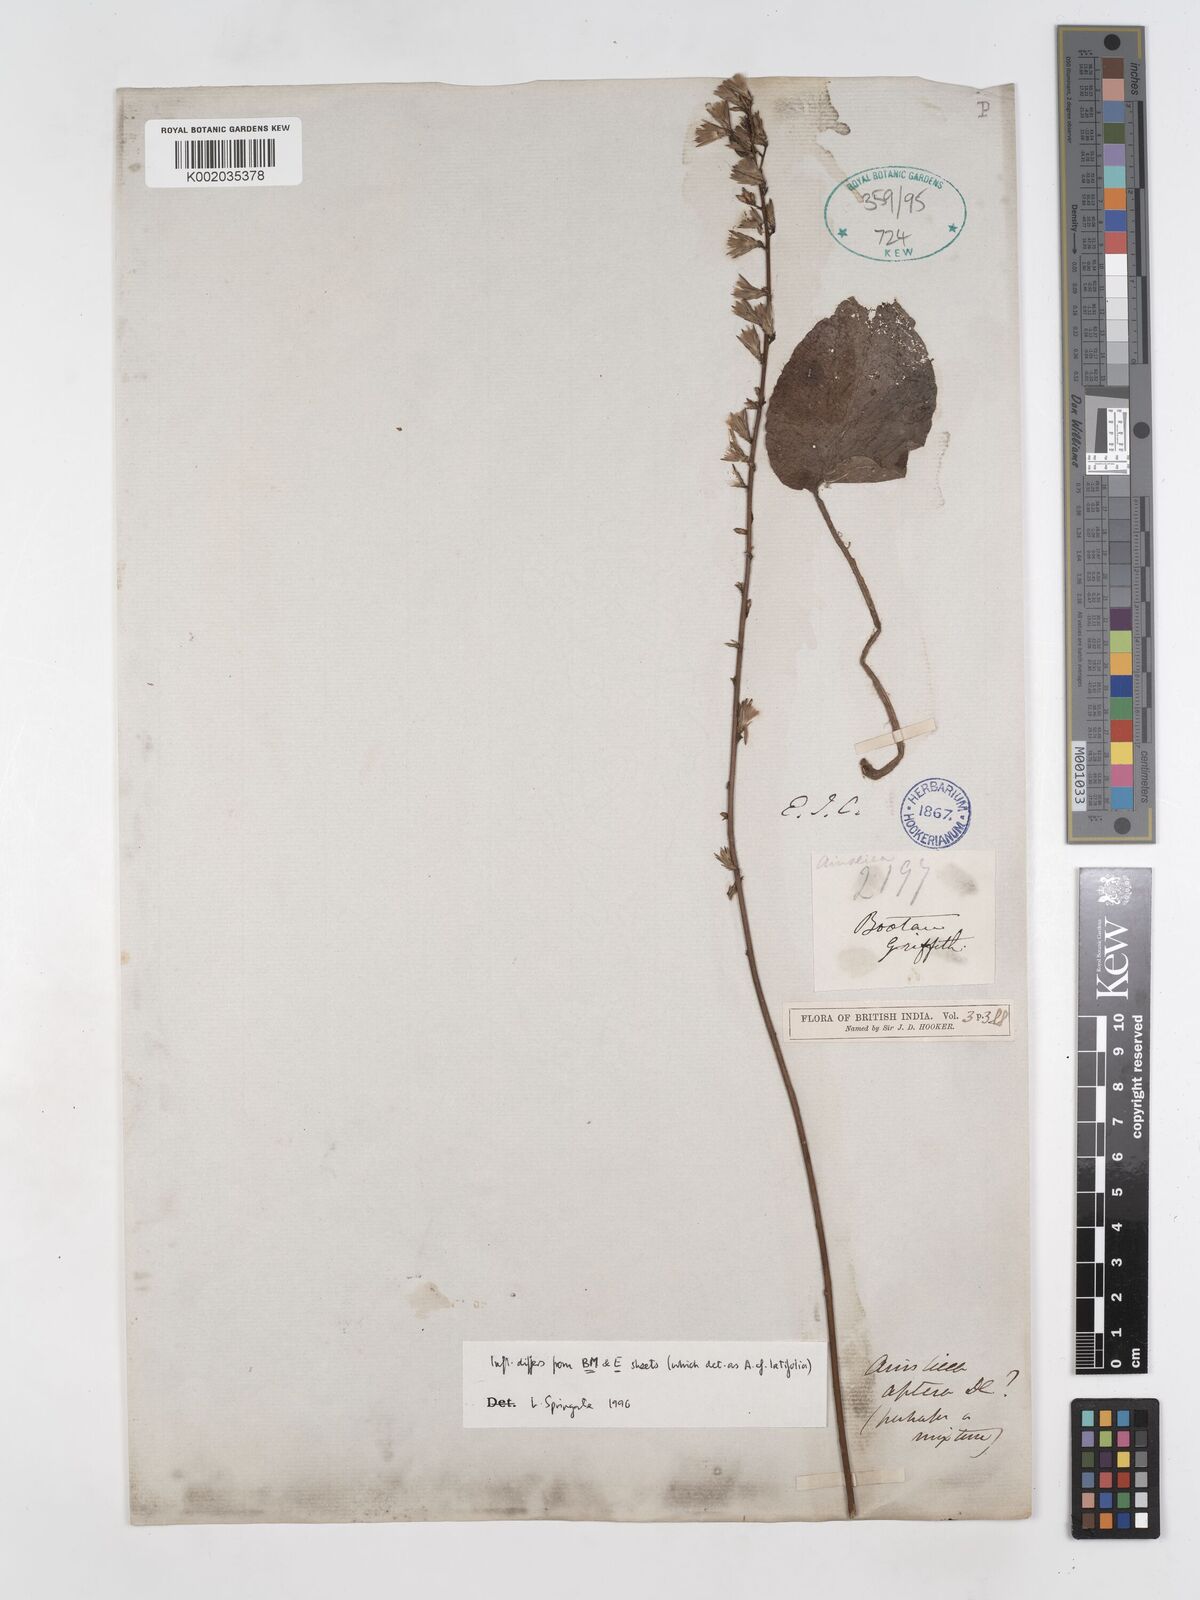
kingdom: Plantae
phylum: Tracheophyta
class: Magnoliopsida
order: Asterales
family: Asteraceae
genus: Ainsliaea
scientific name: Ainsliaea aptera
